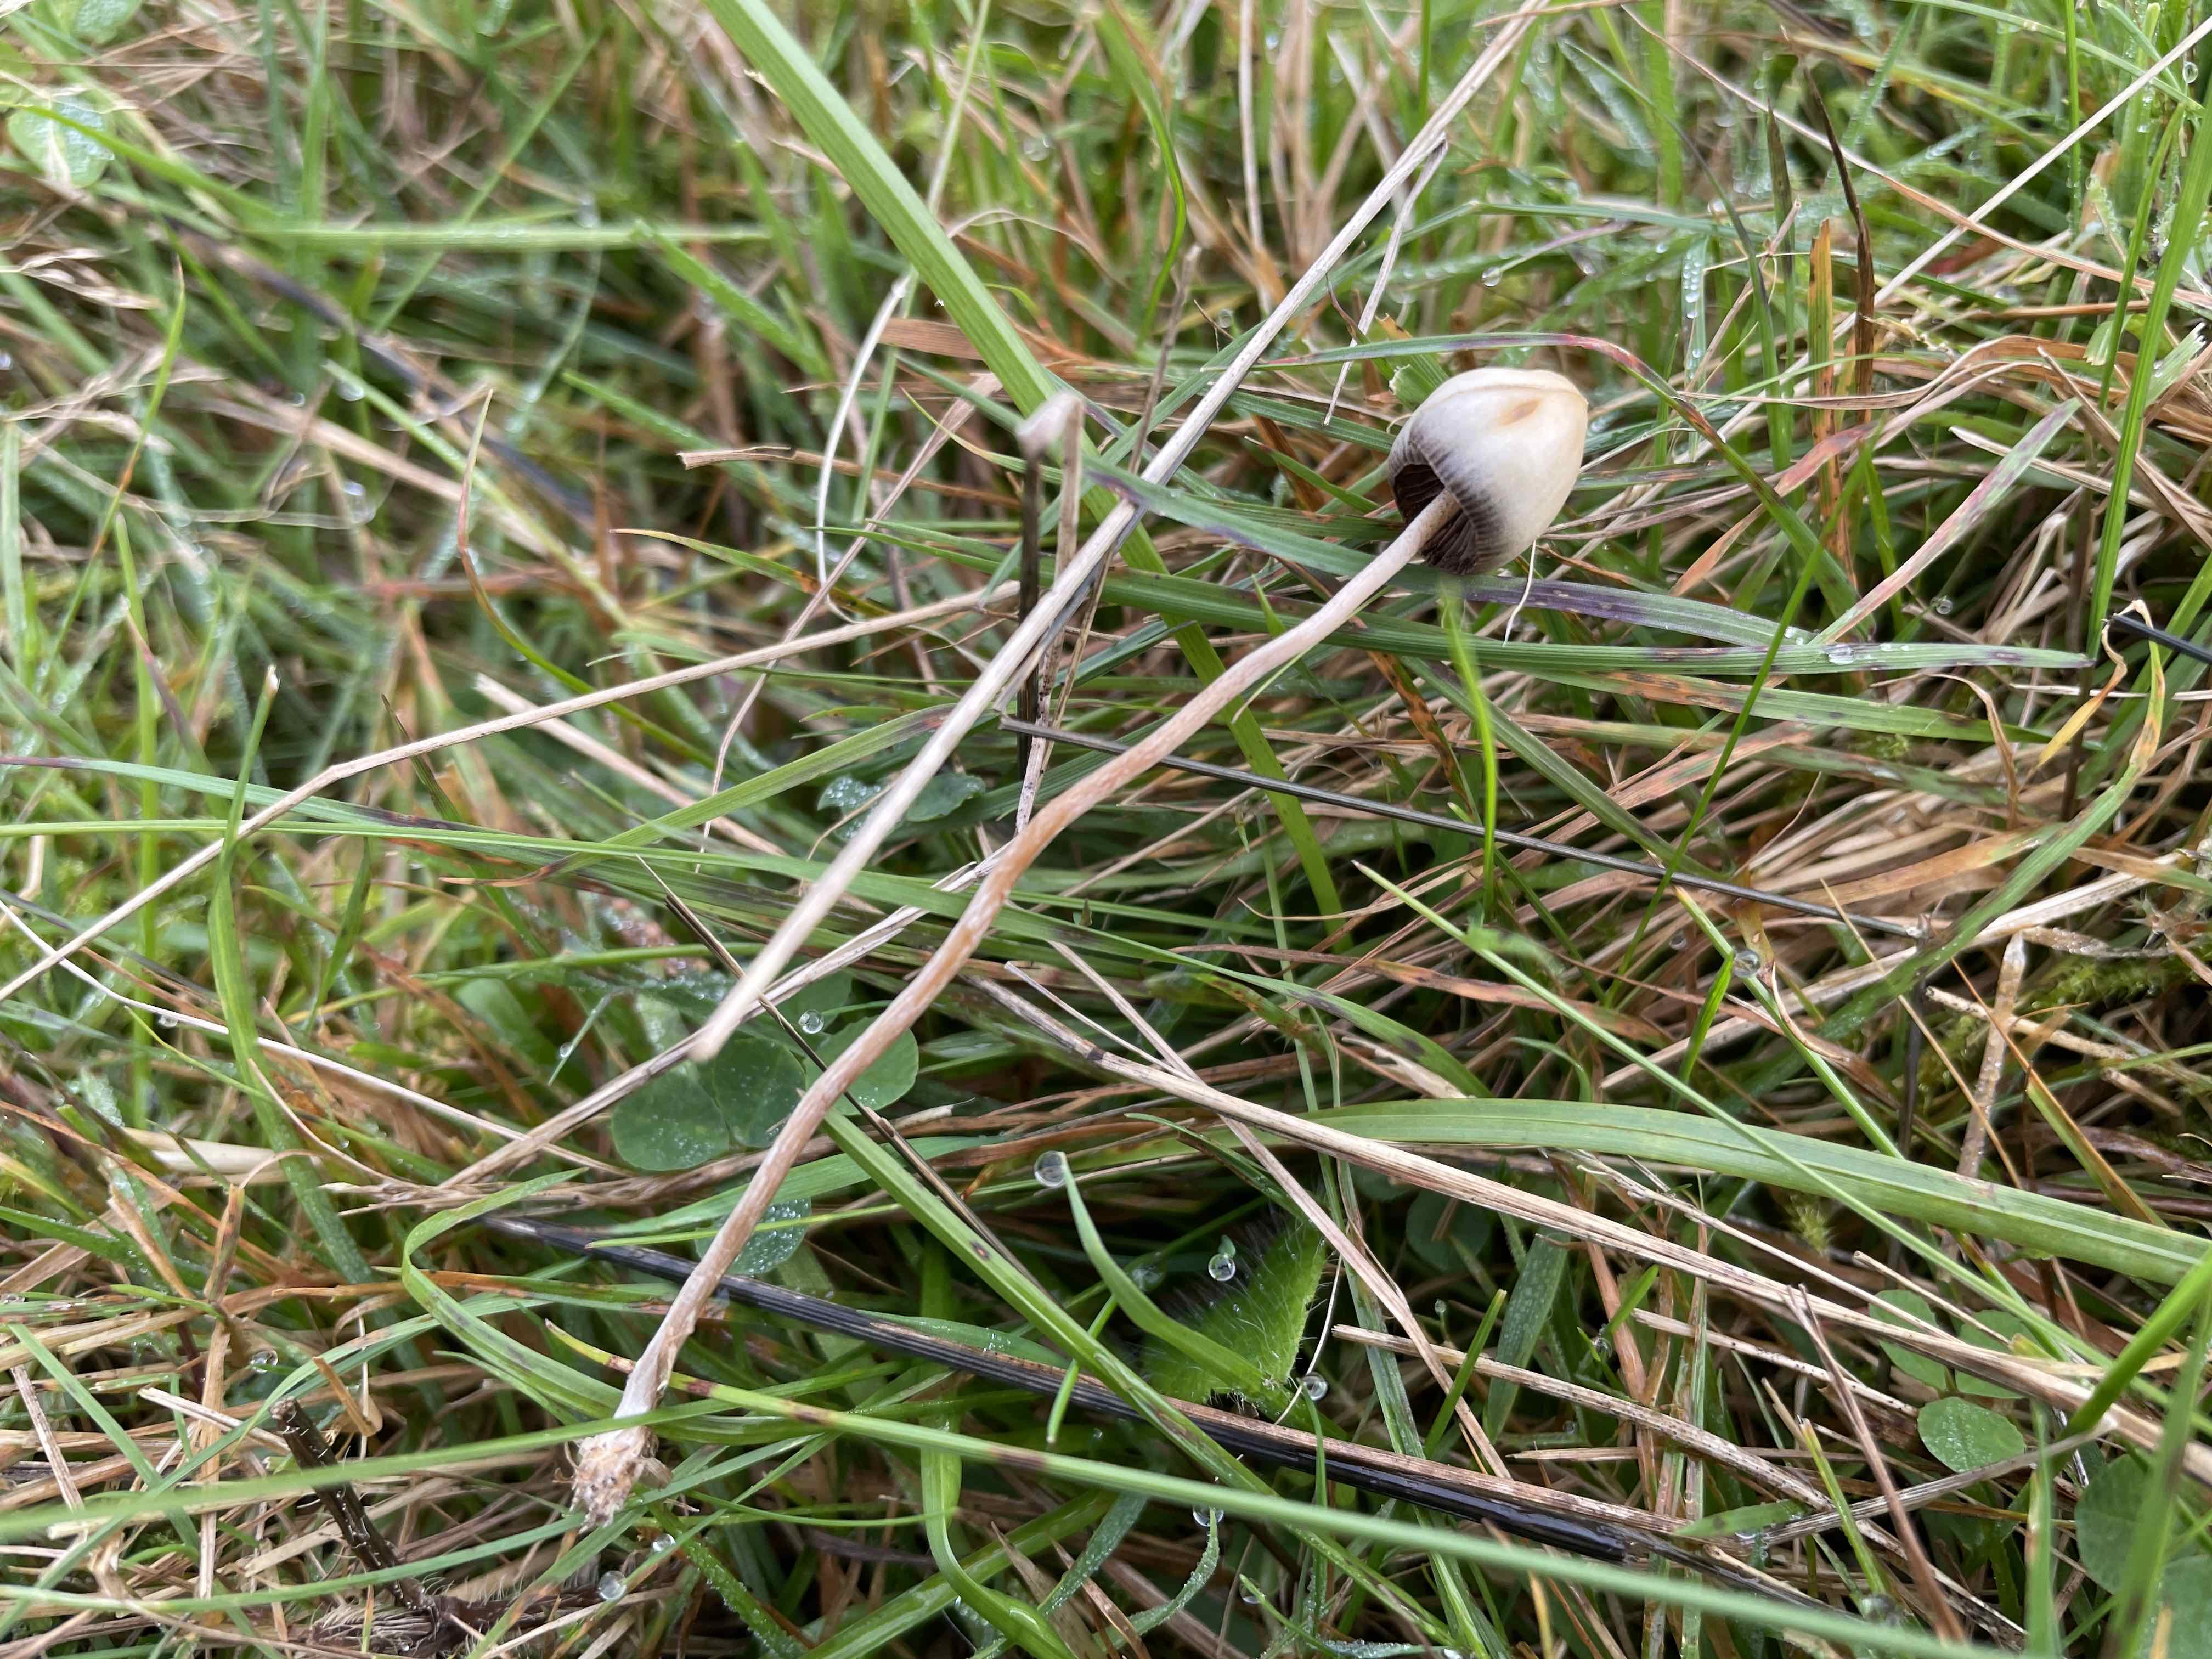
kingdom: Fungi
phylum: Basidiomycota
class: Agaricomycetes
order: Agaricales
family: Hymenogastraceae
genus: Psilocybe
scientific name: Psilocybe semilanceata
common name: spids nøgenhat
